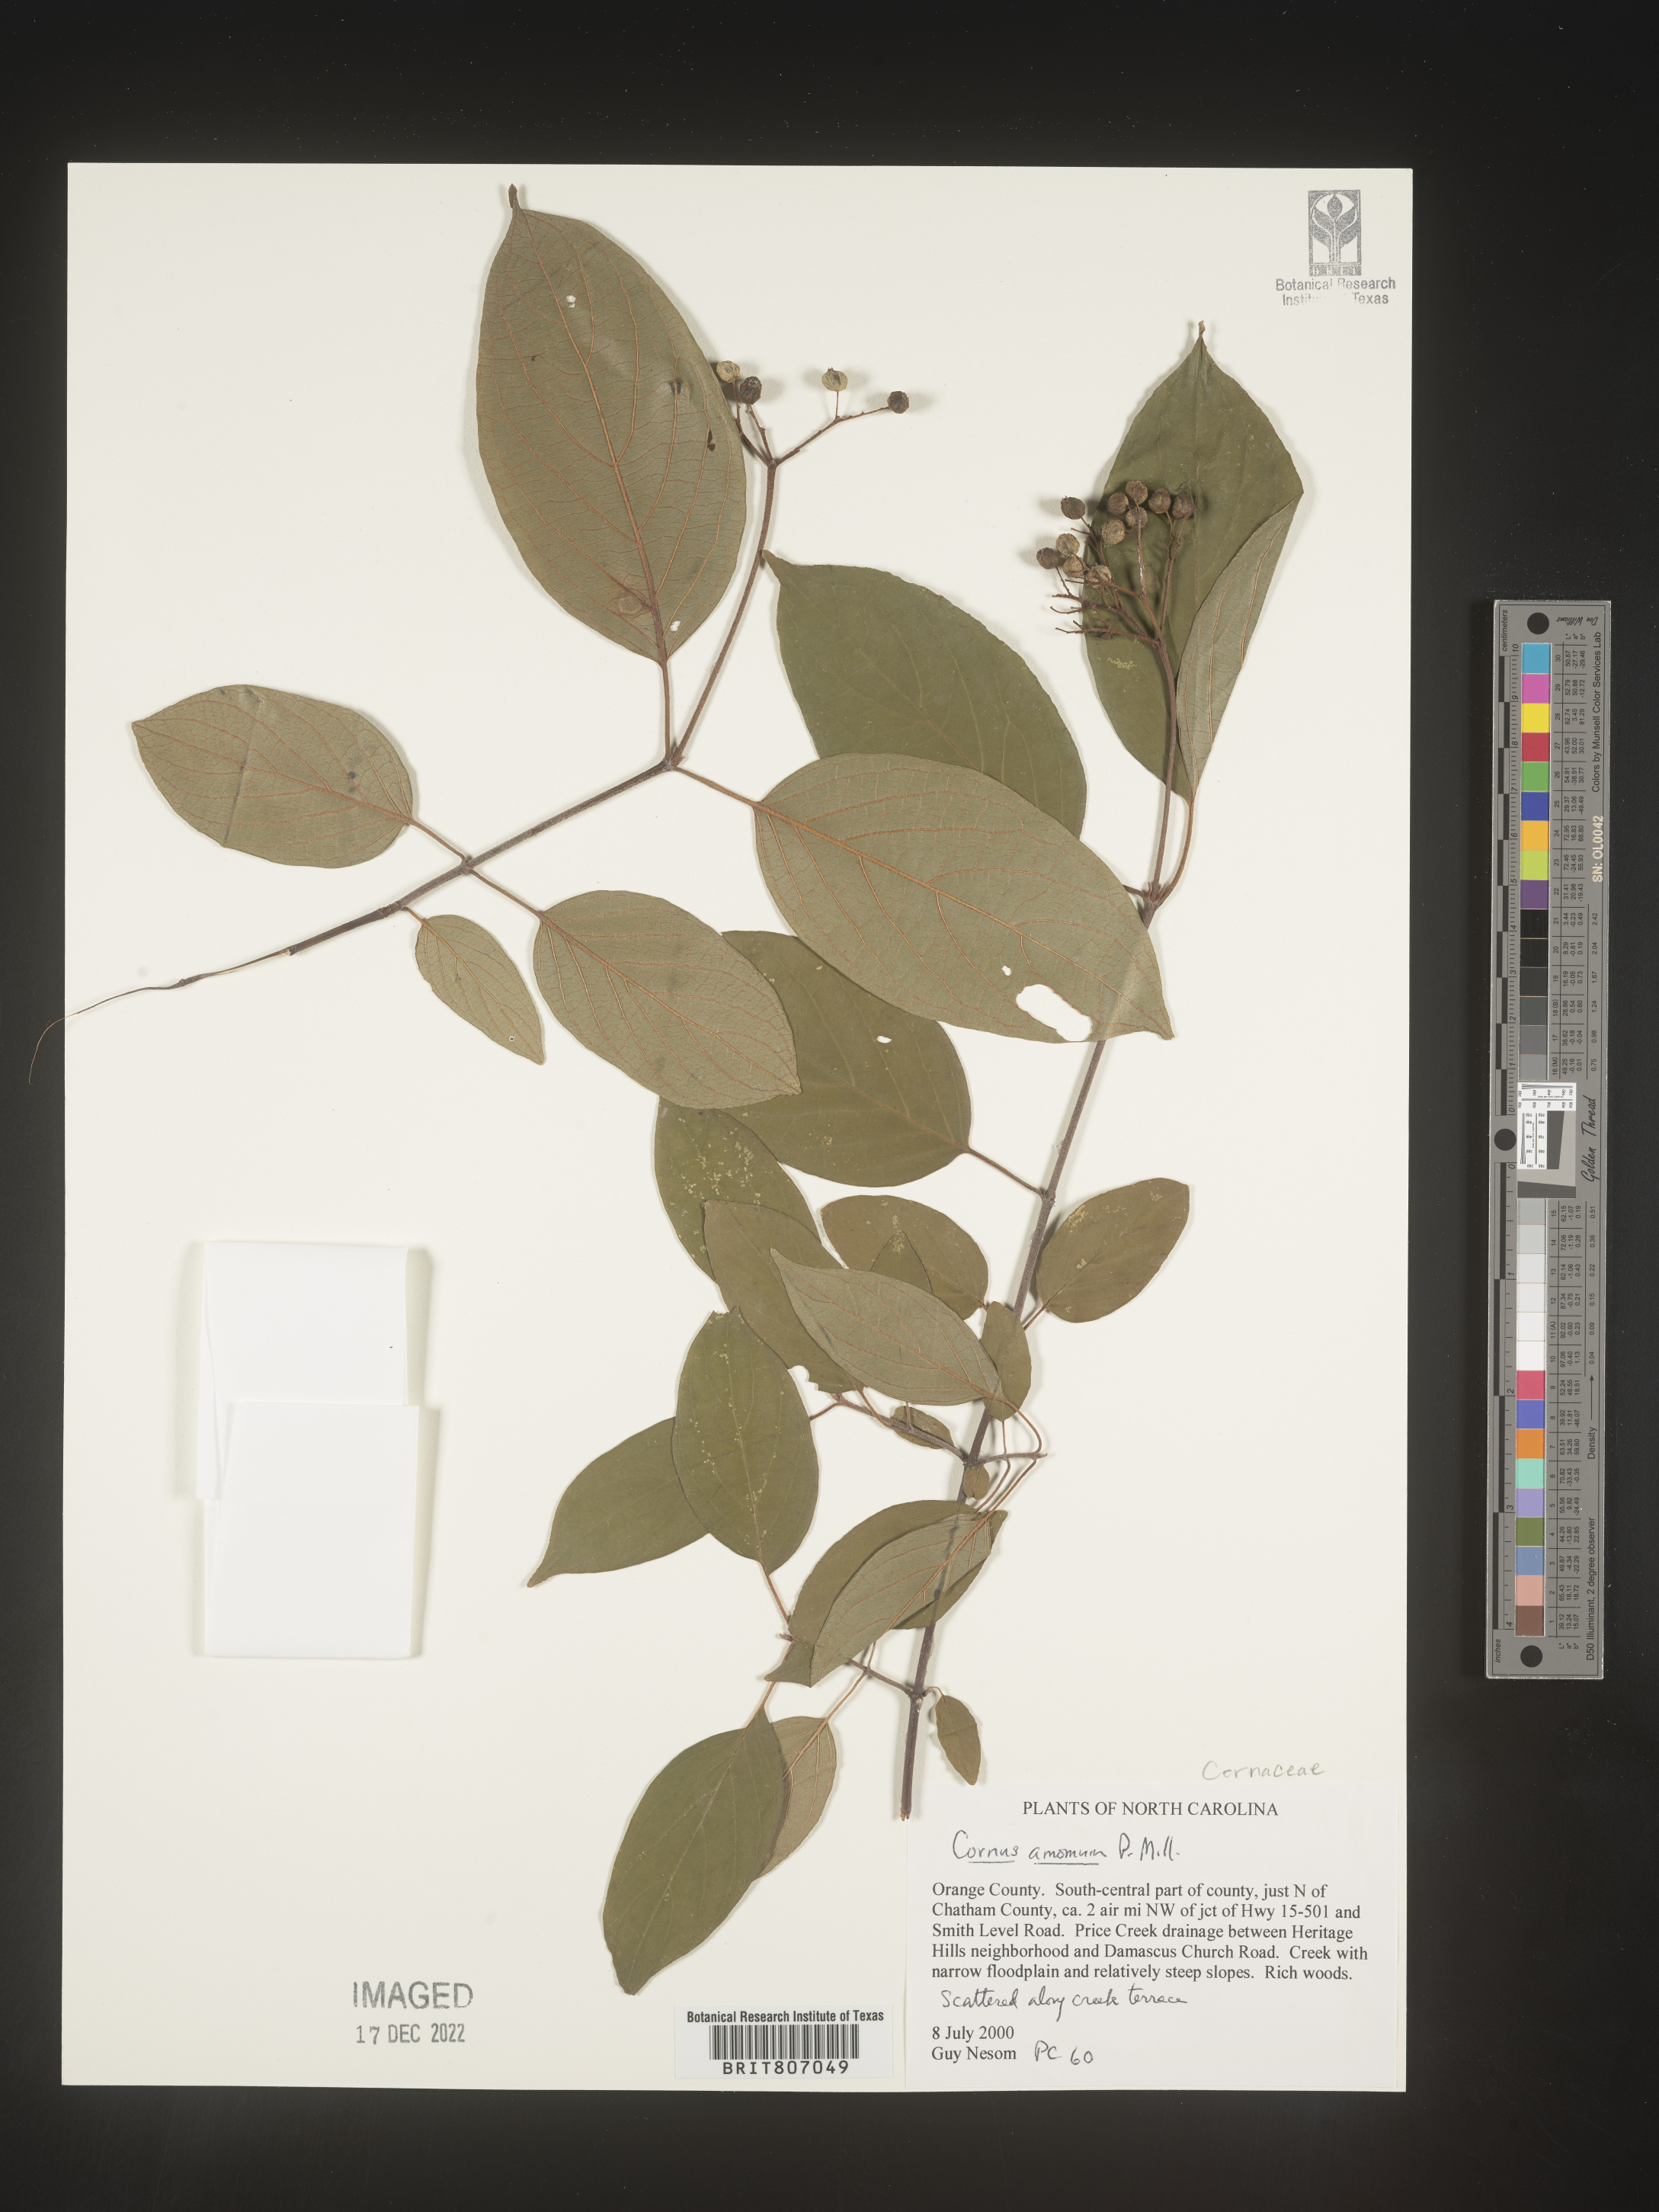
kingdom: Plantae
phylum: Tracheophyta
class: Magnoliopsida
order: Cornales
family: Cornaceae
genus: Cornus
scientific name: Cornus amomum
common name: Silky dogwood
